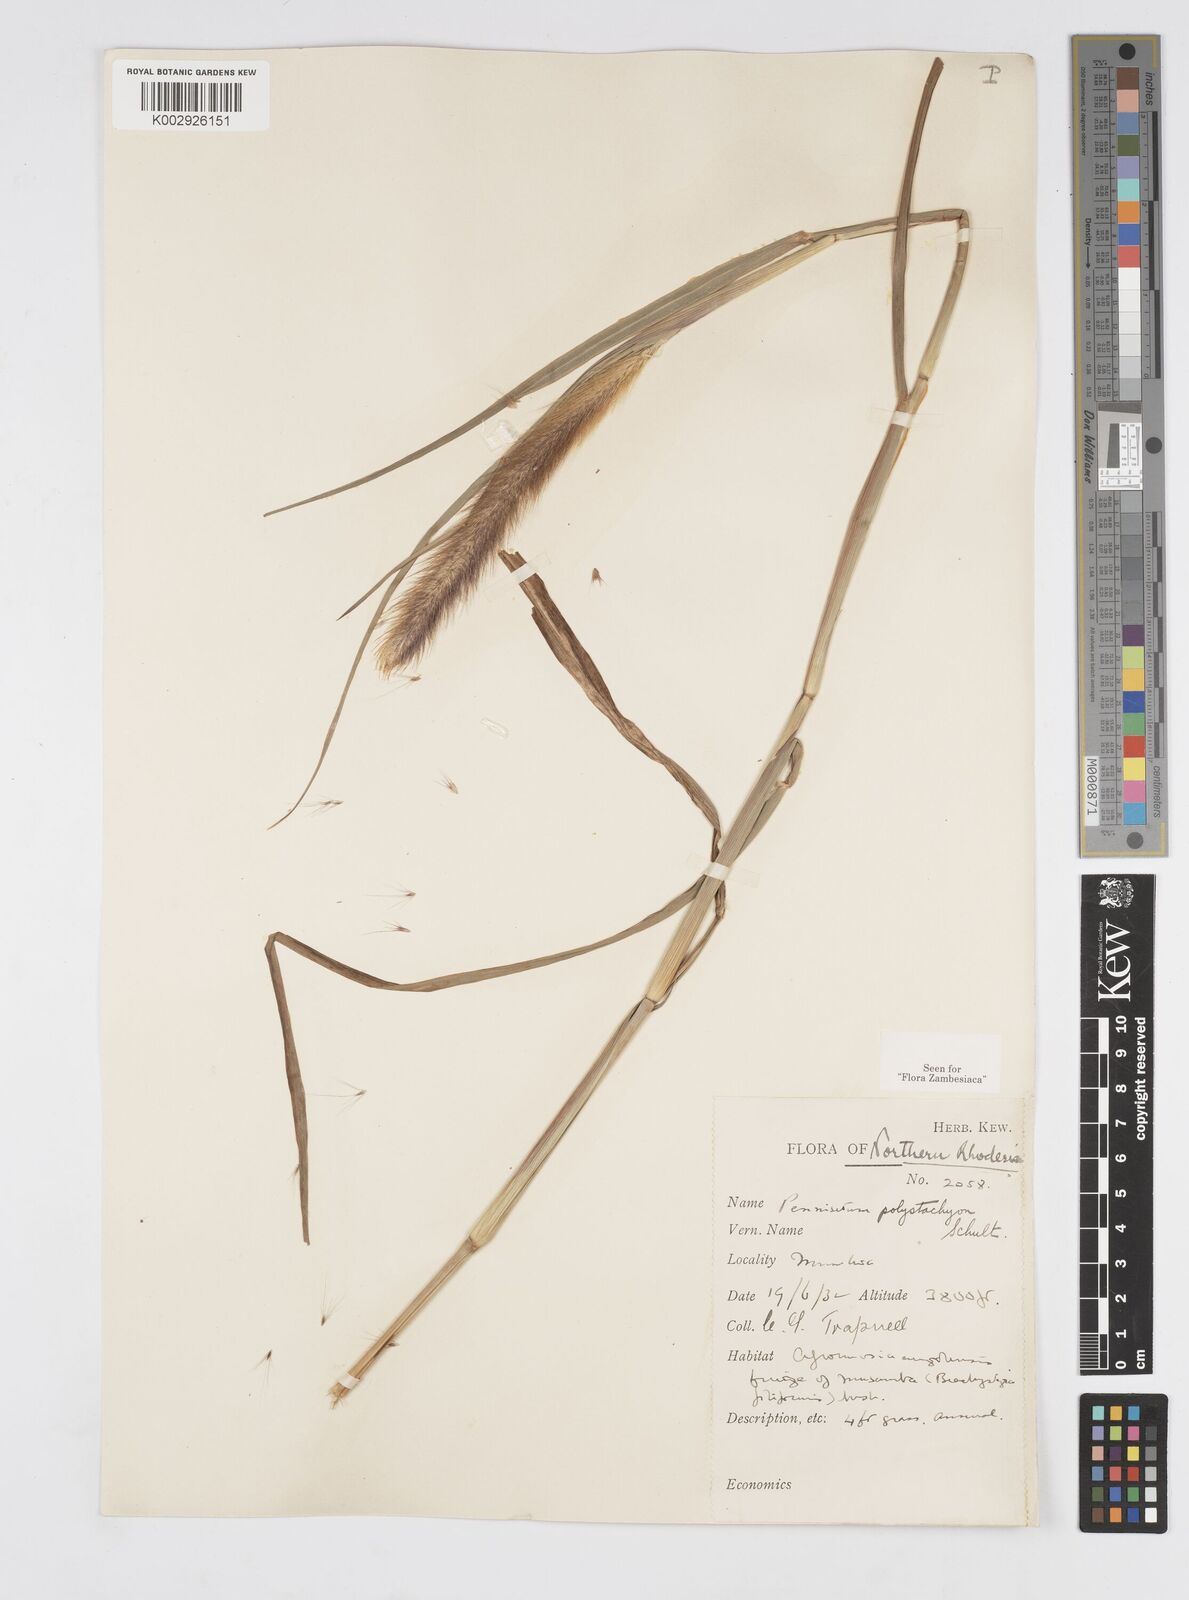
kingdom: Plantae
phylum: Tracheophyta
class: Liliopsida
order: Poales
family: Poaceae
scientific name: Poaceae
